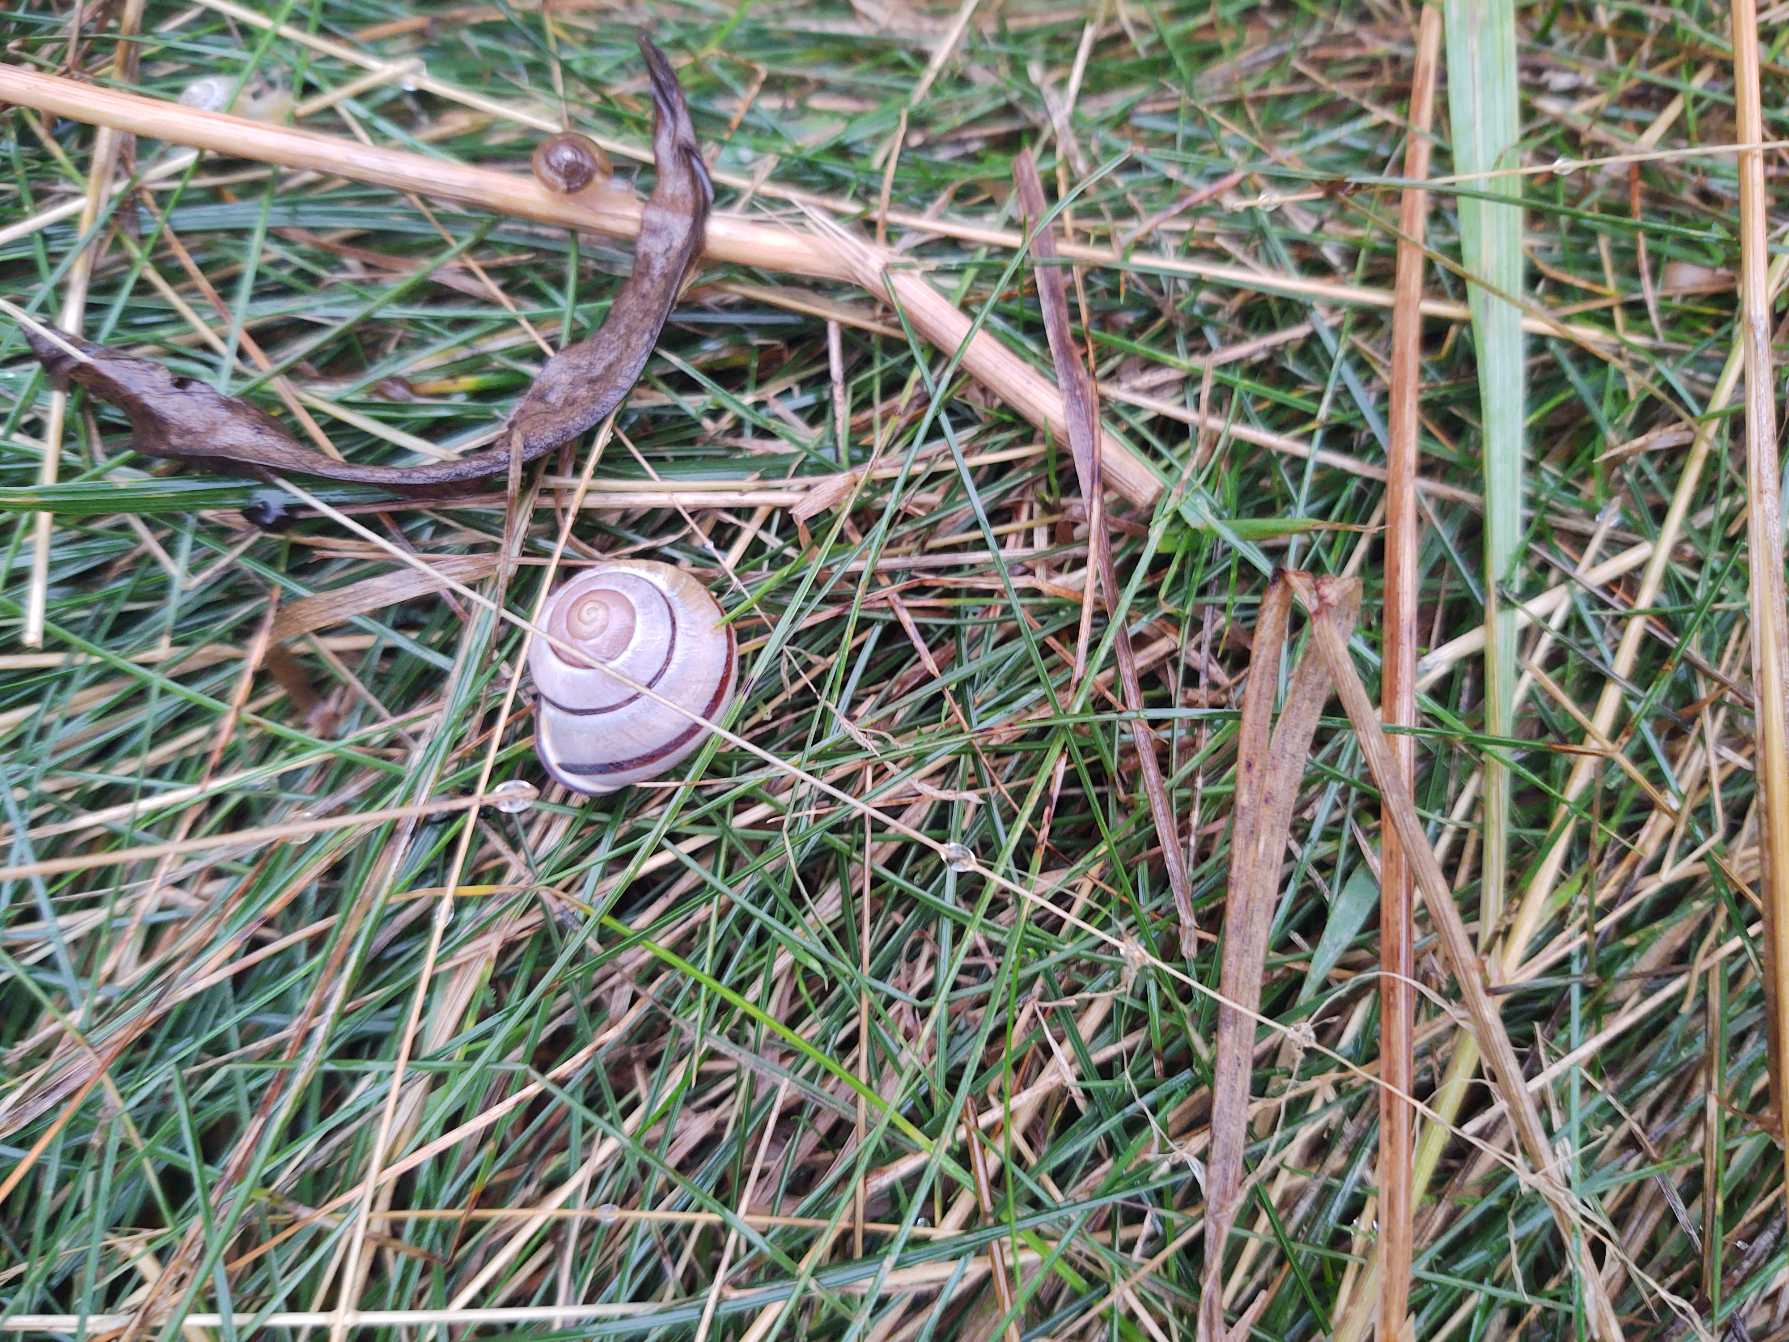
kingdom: Animalia
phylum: Mollusca
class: Gastropoda
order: Stylommatophora
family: Helicidae
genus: Cepaea
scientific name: Cepaea nemoralis
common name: Lundsnegl
